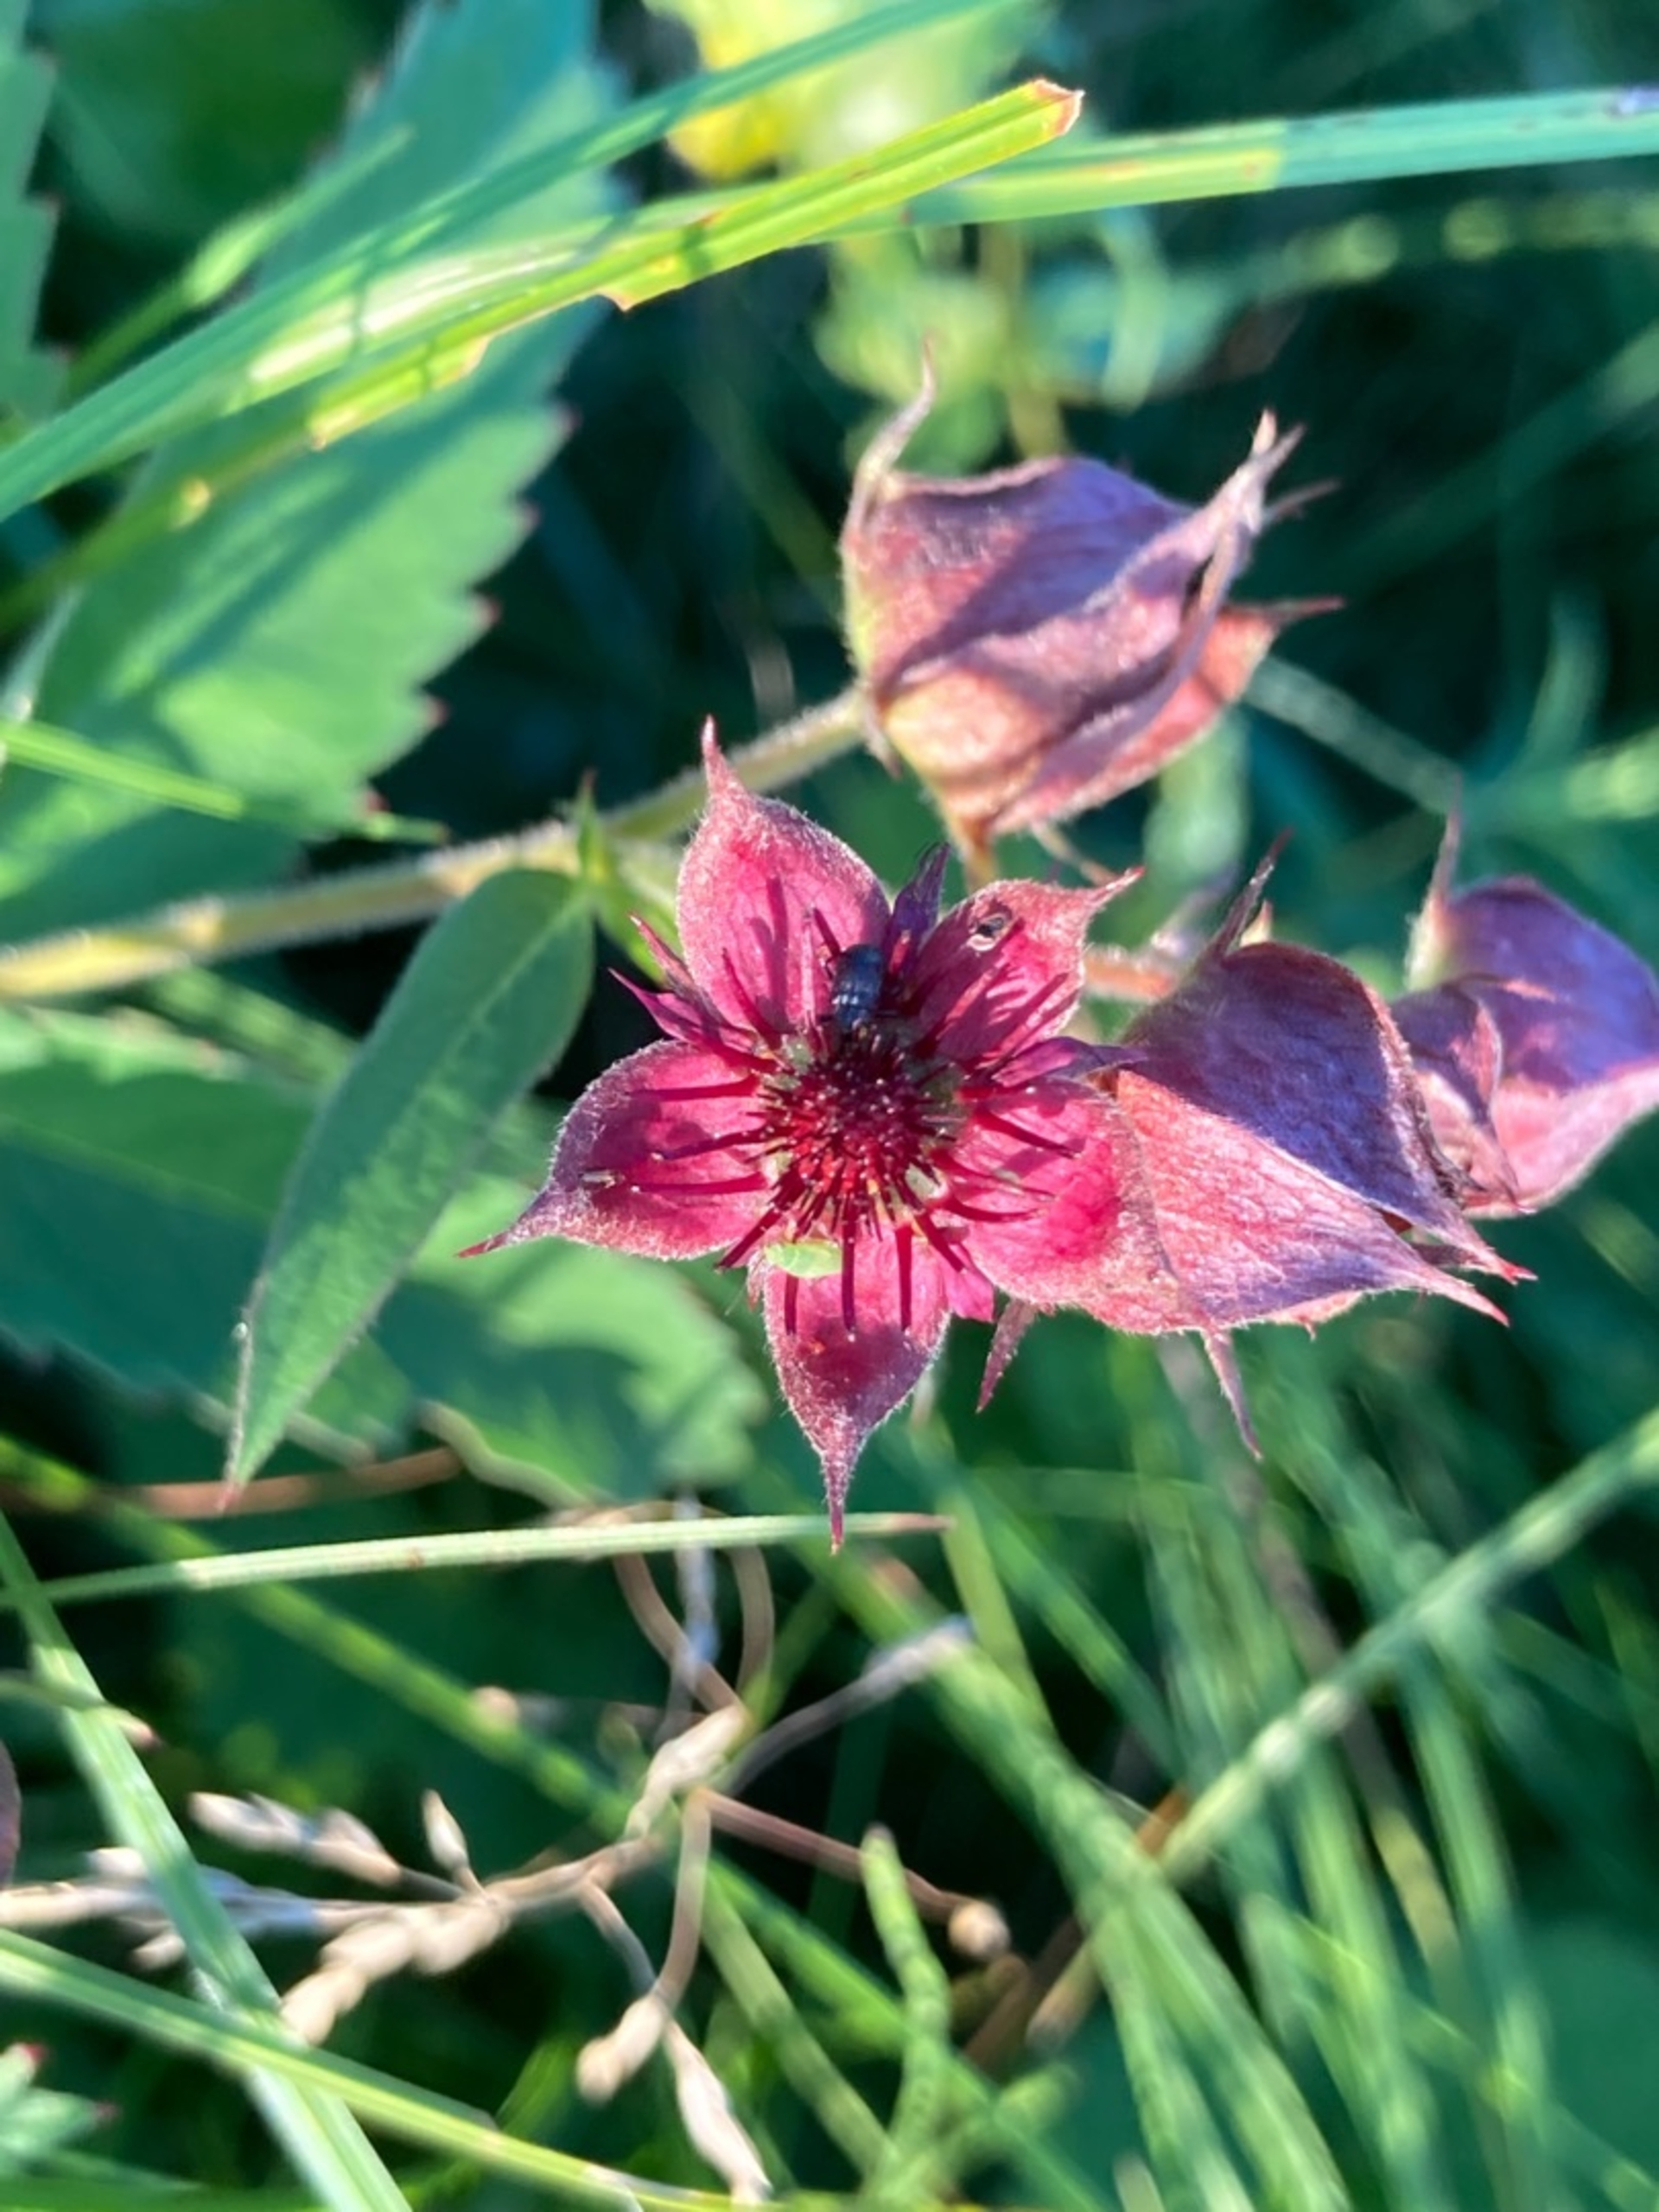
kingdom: Plantae
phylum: Tracheophyta
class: Magnoliopsida
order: Rosales
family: Rosaceae
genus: Comarum
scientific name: Comarum palustre
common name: Kragefod
